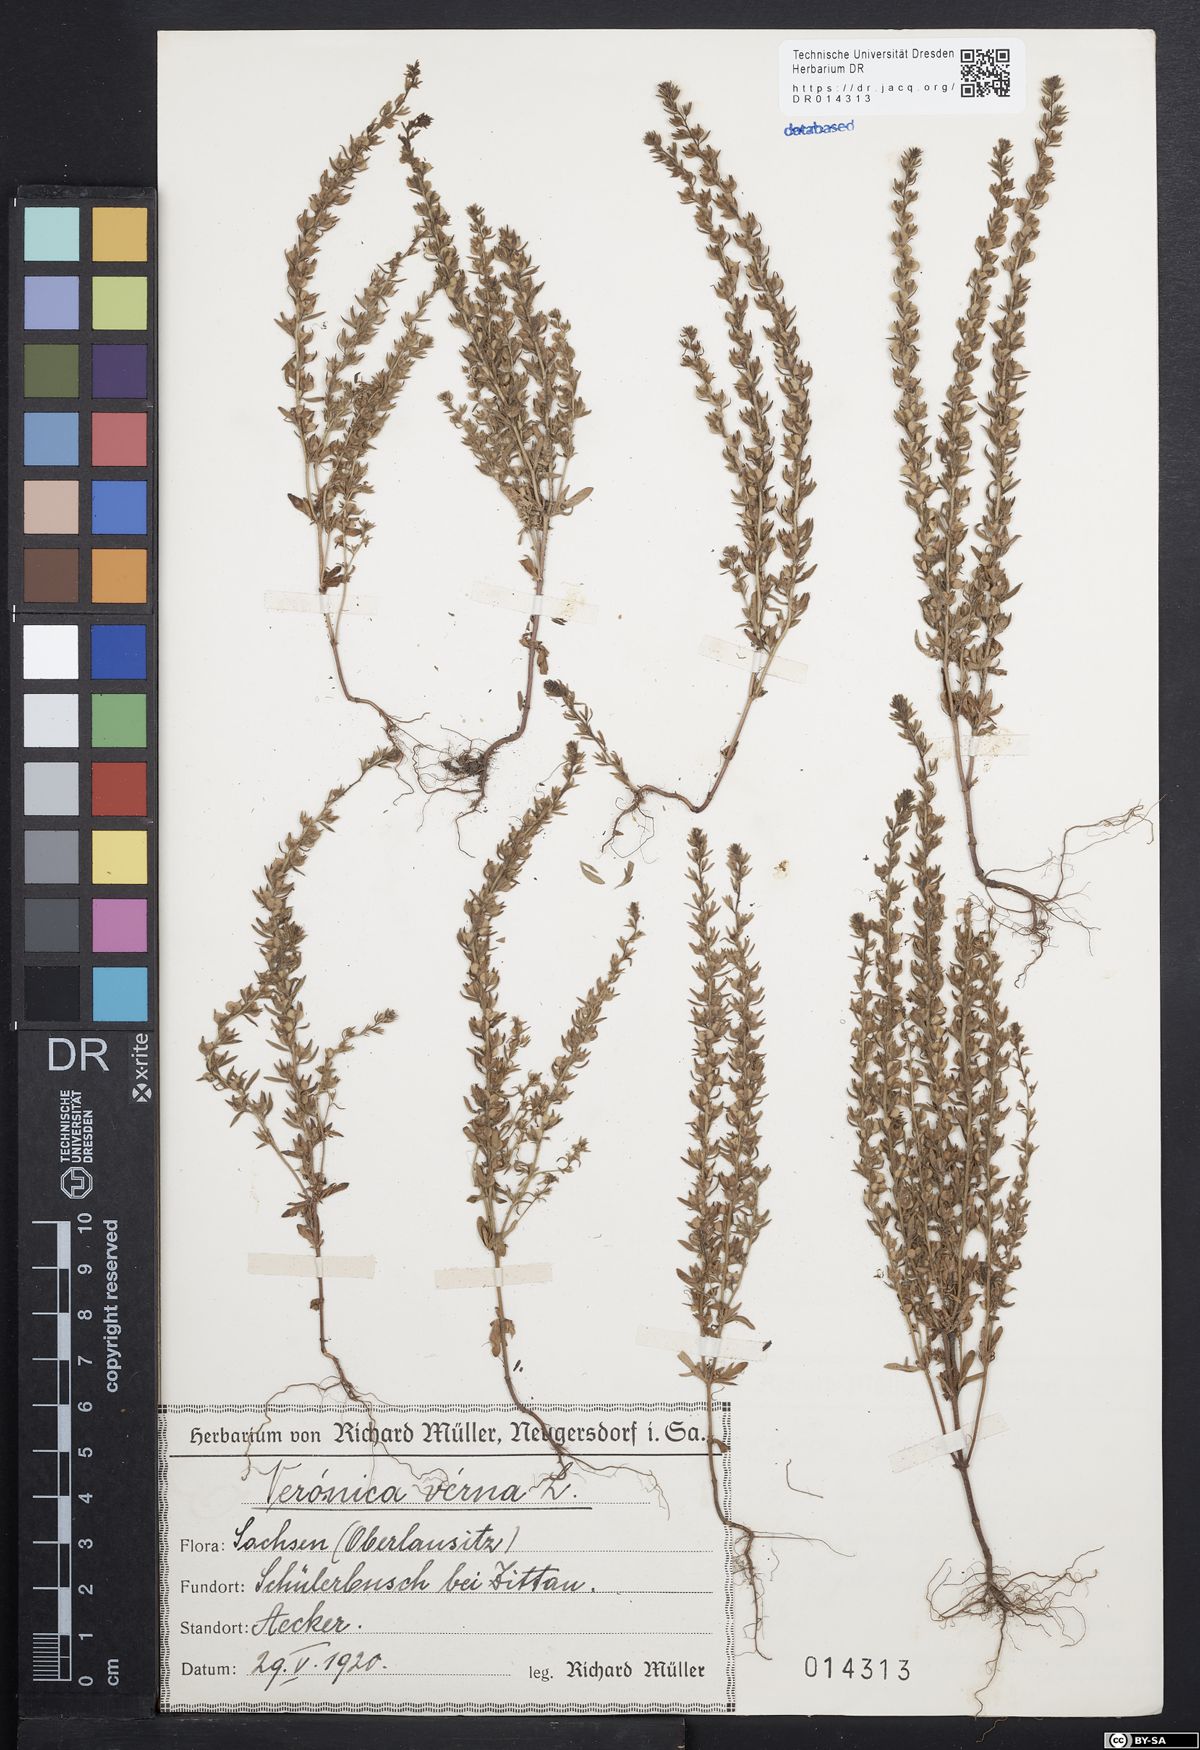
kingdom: Plantae
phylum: Tracheophyta
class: Magnoliopsida
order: Lamiales
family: Plantaginaceae
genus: Veronica
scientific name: Veronica verna
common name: Spring speedwell
